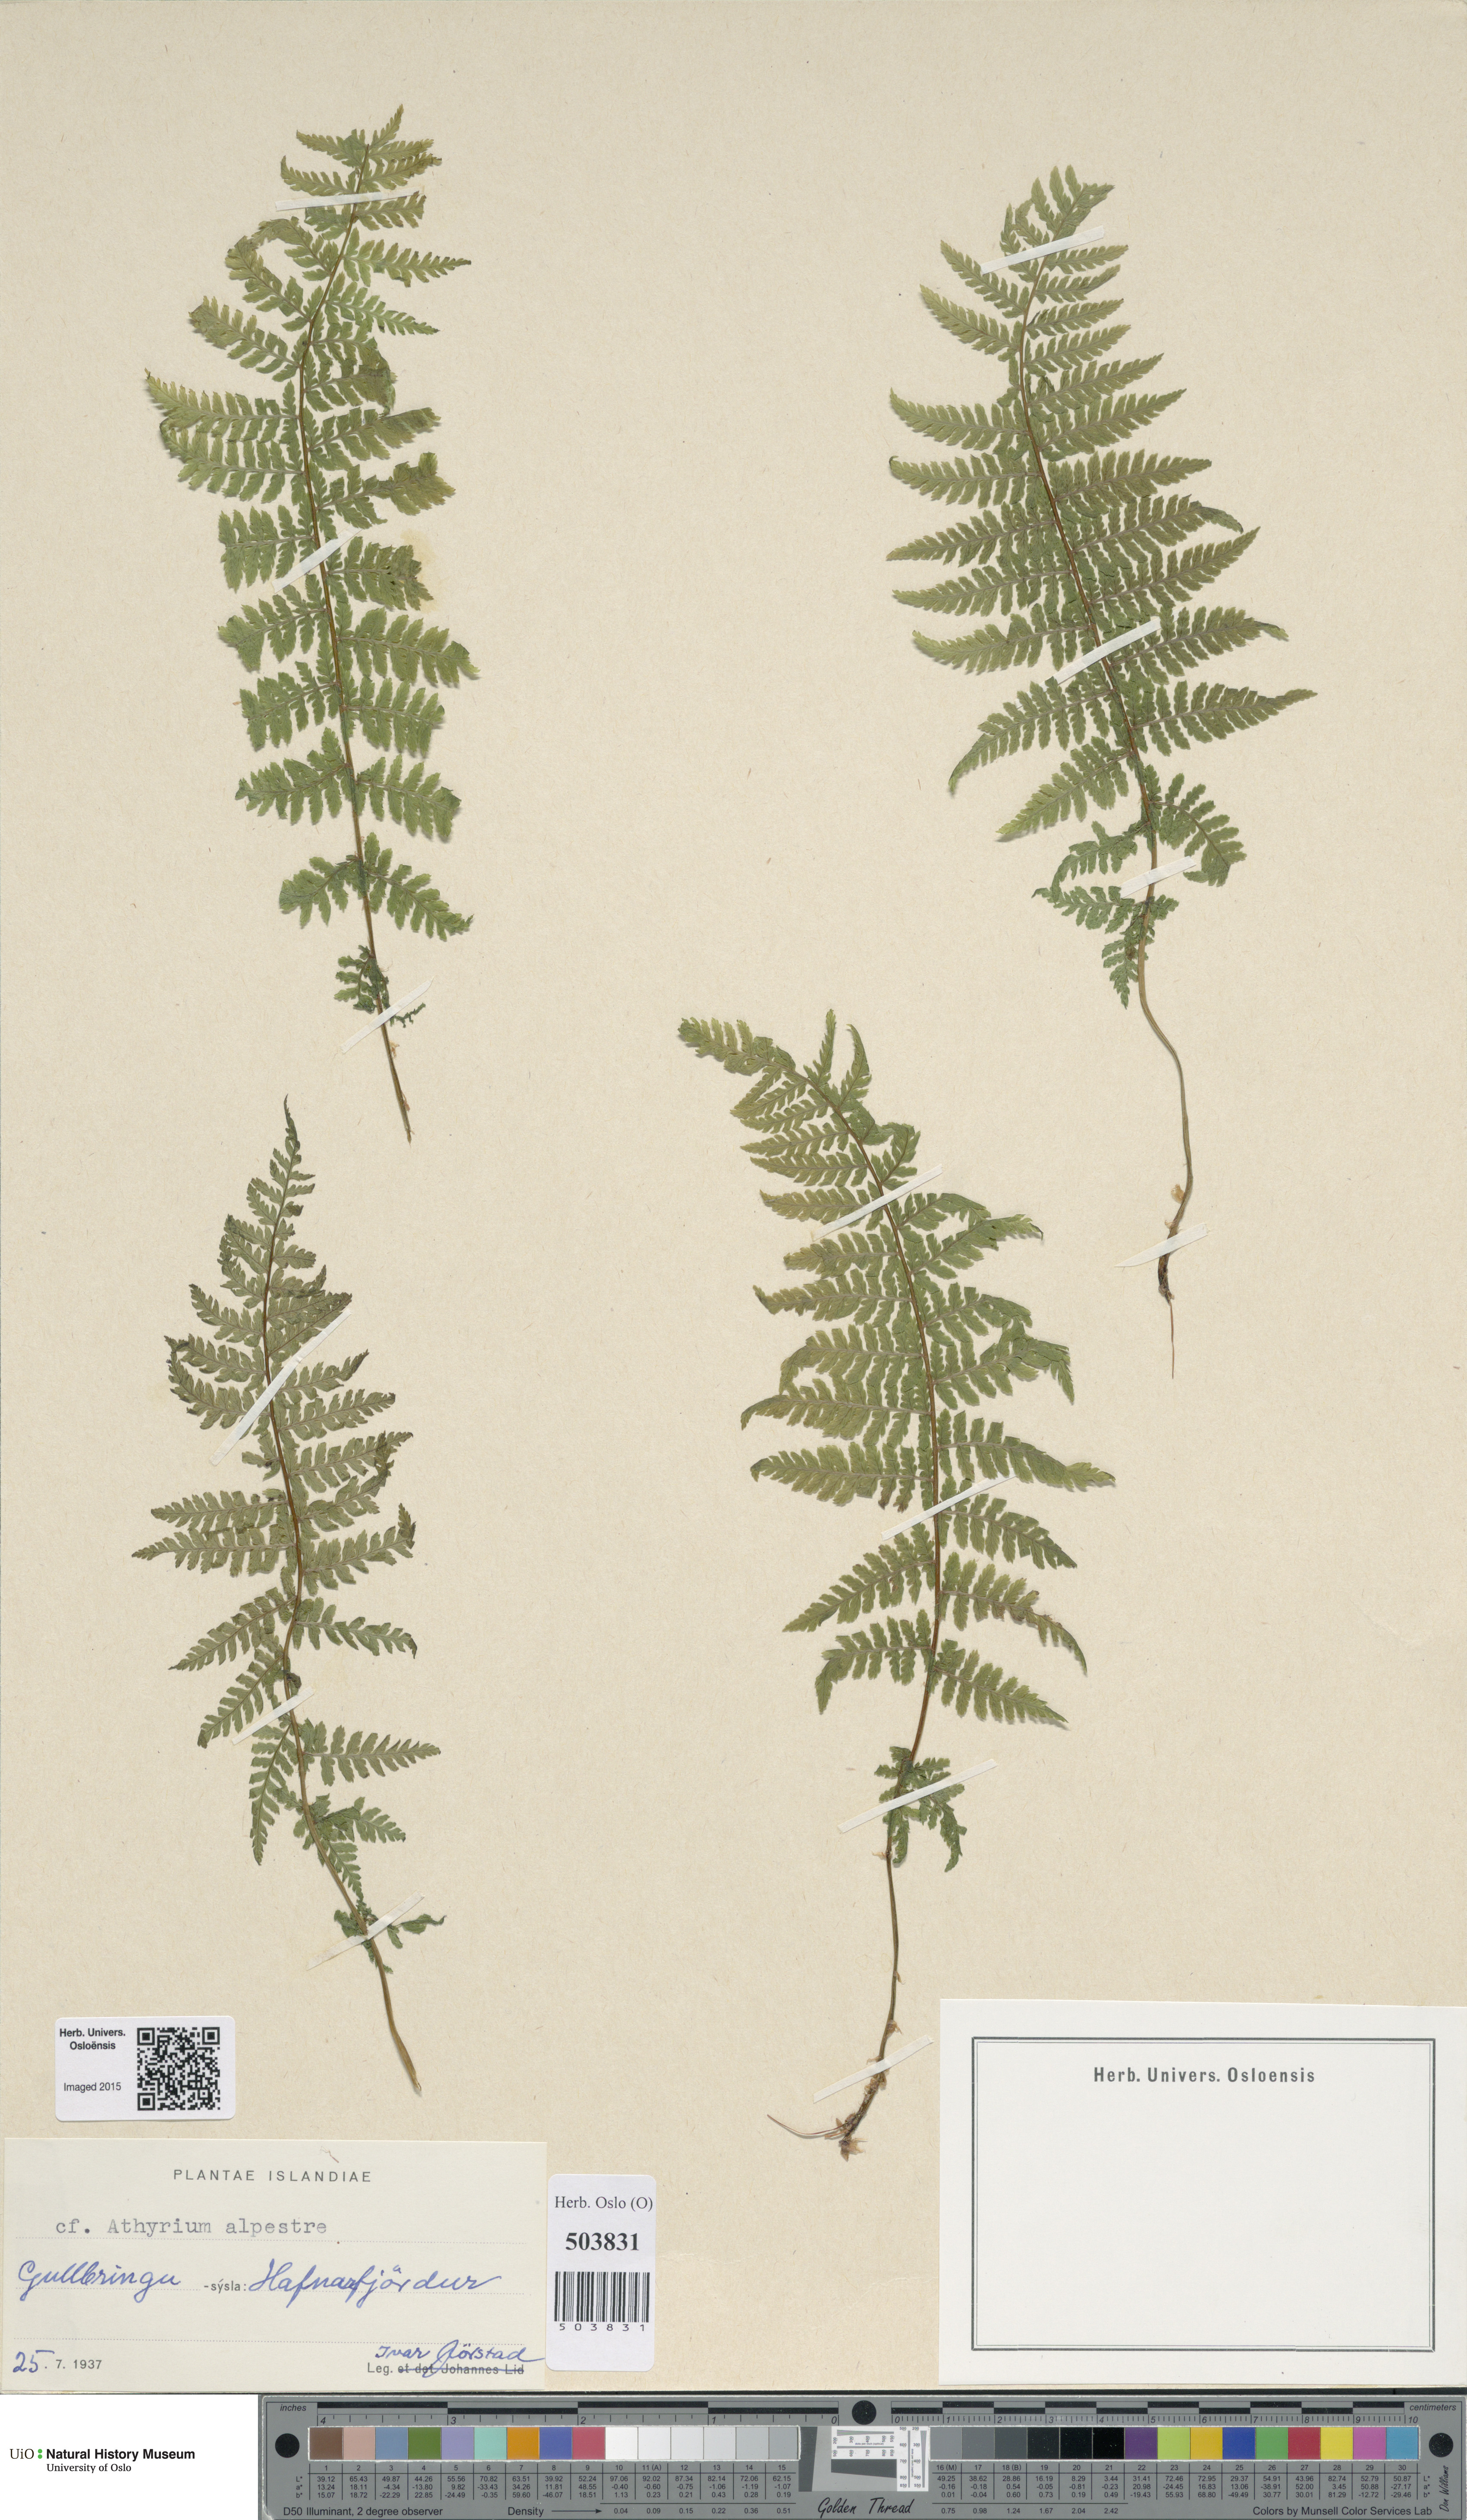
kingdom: Plantae
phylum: Tracheophyta
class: Polypodiopsida
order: Polypodiales
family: Athyriaceae
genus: Athyrium
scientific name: Athyrium filix-femina
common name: Lady fern
